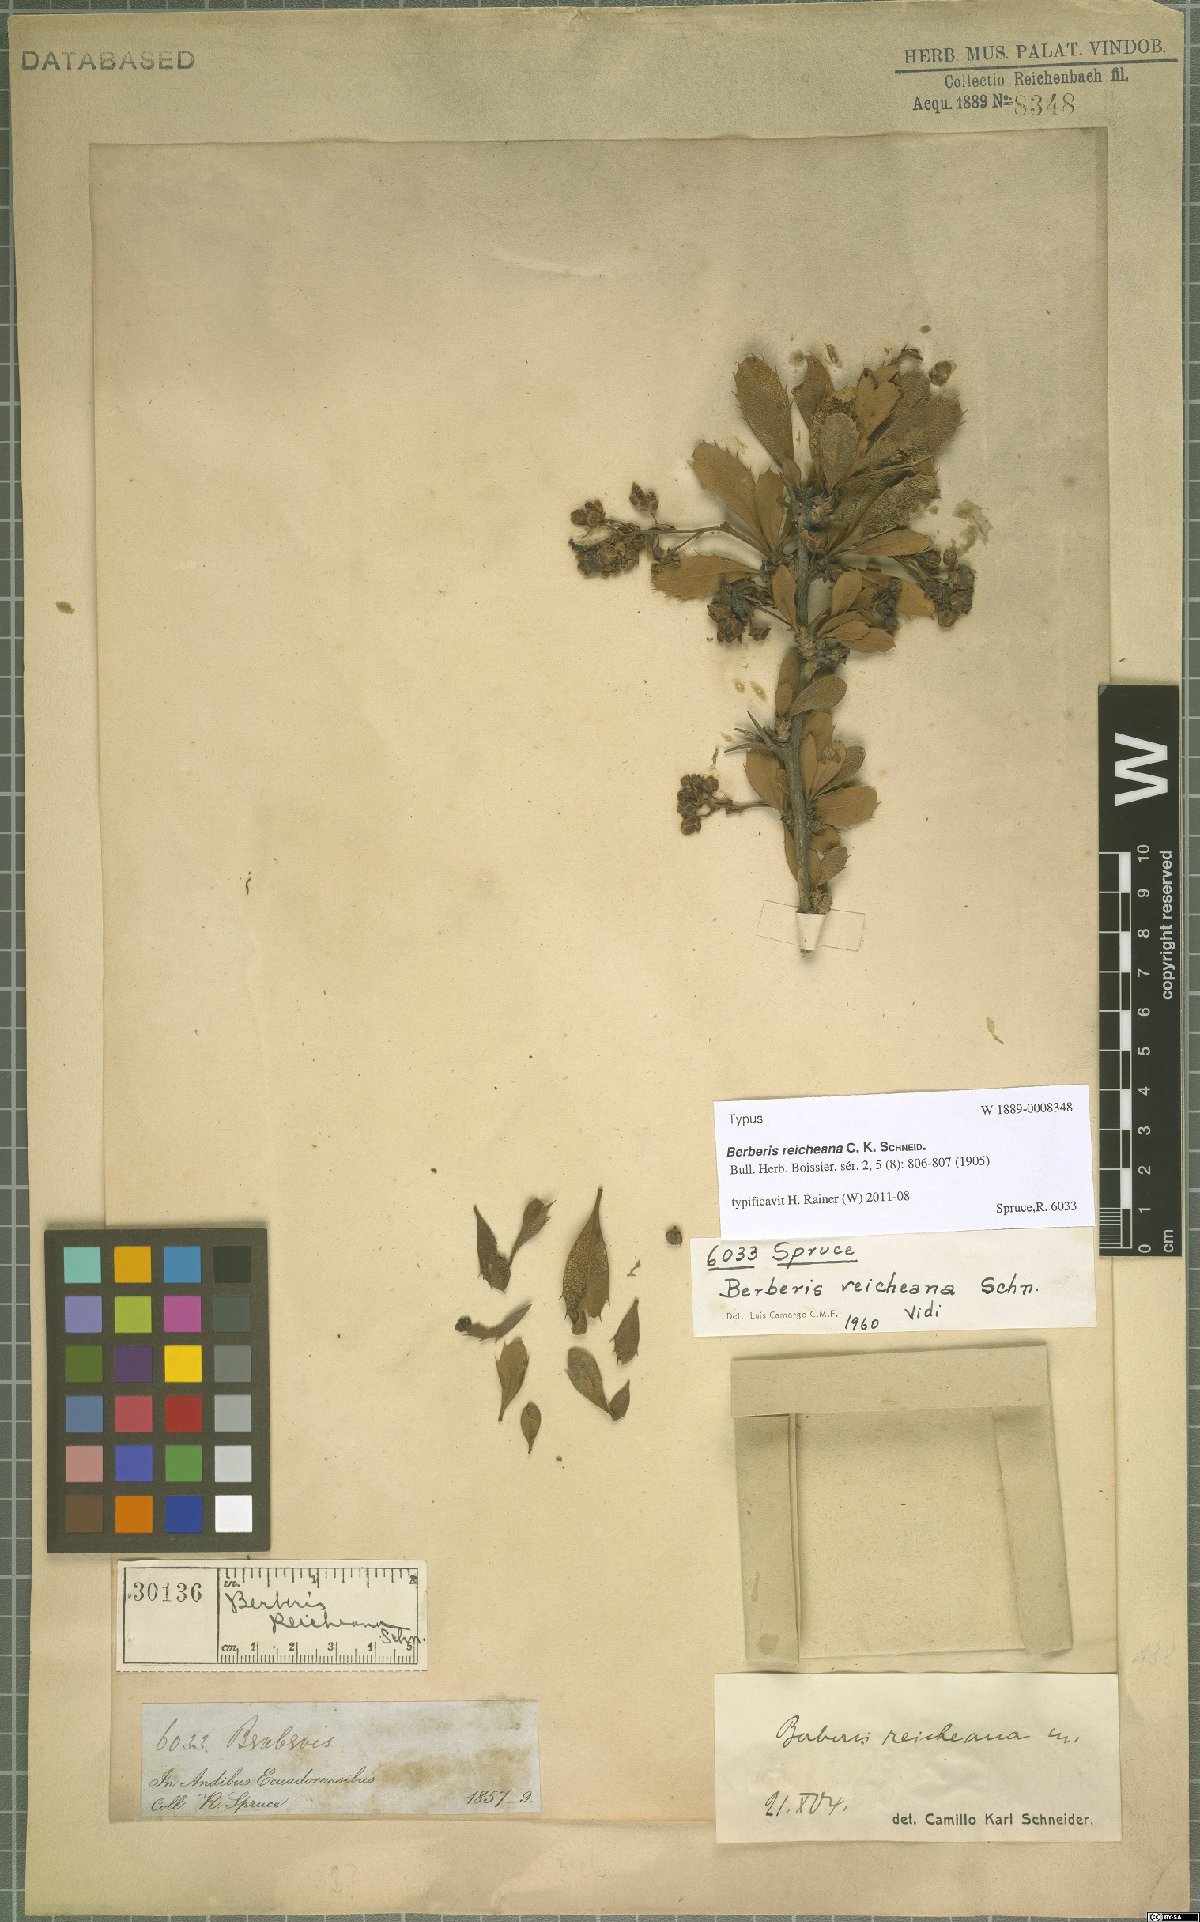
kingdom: Plantae
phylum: Tracheophyta
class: Magnoliopsida
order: Ranunculales
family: Berberidaceae
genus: Berberis
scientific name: Berberis reicheana
